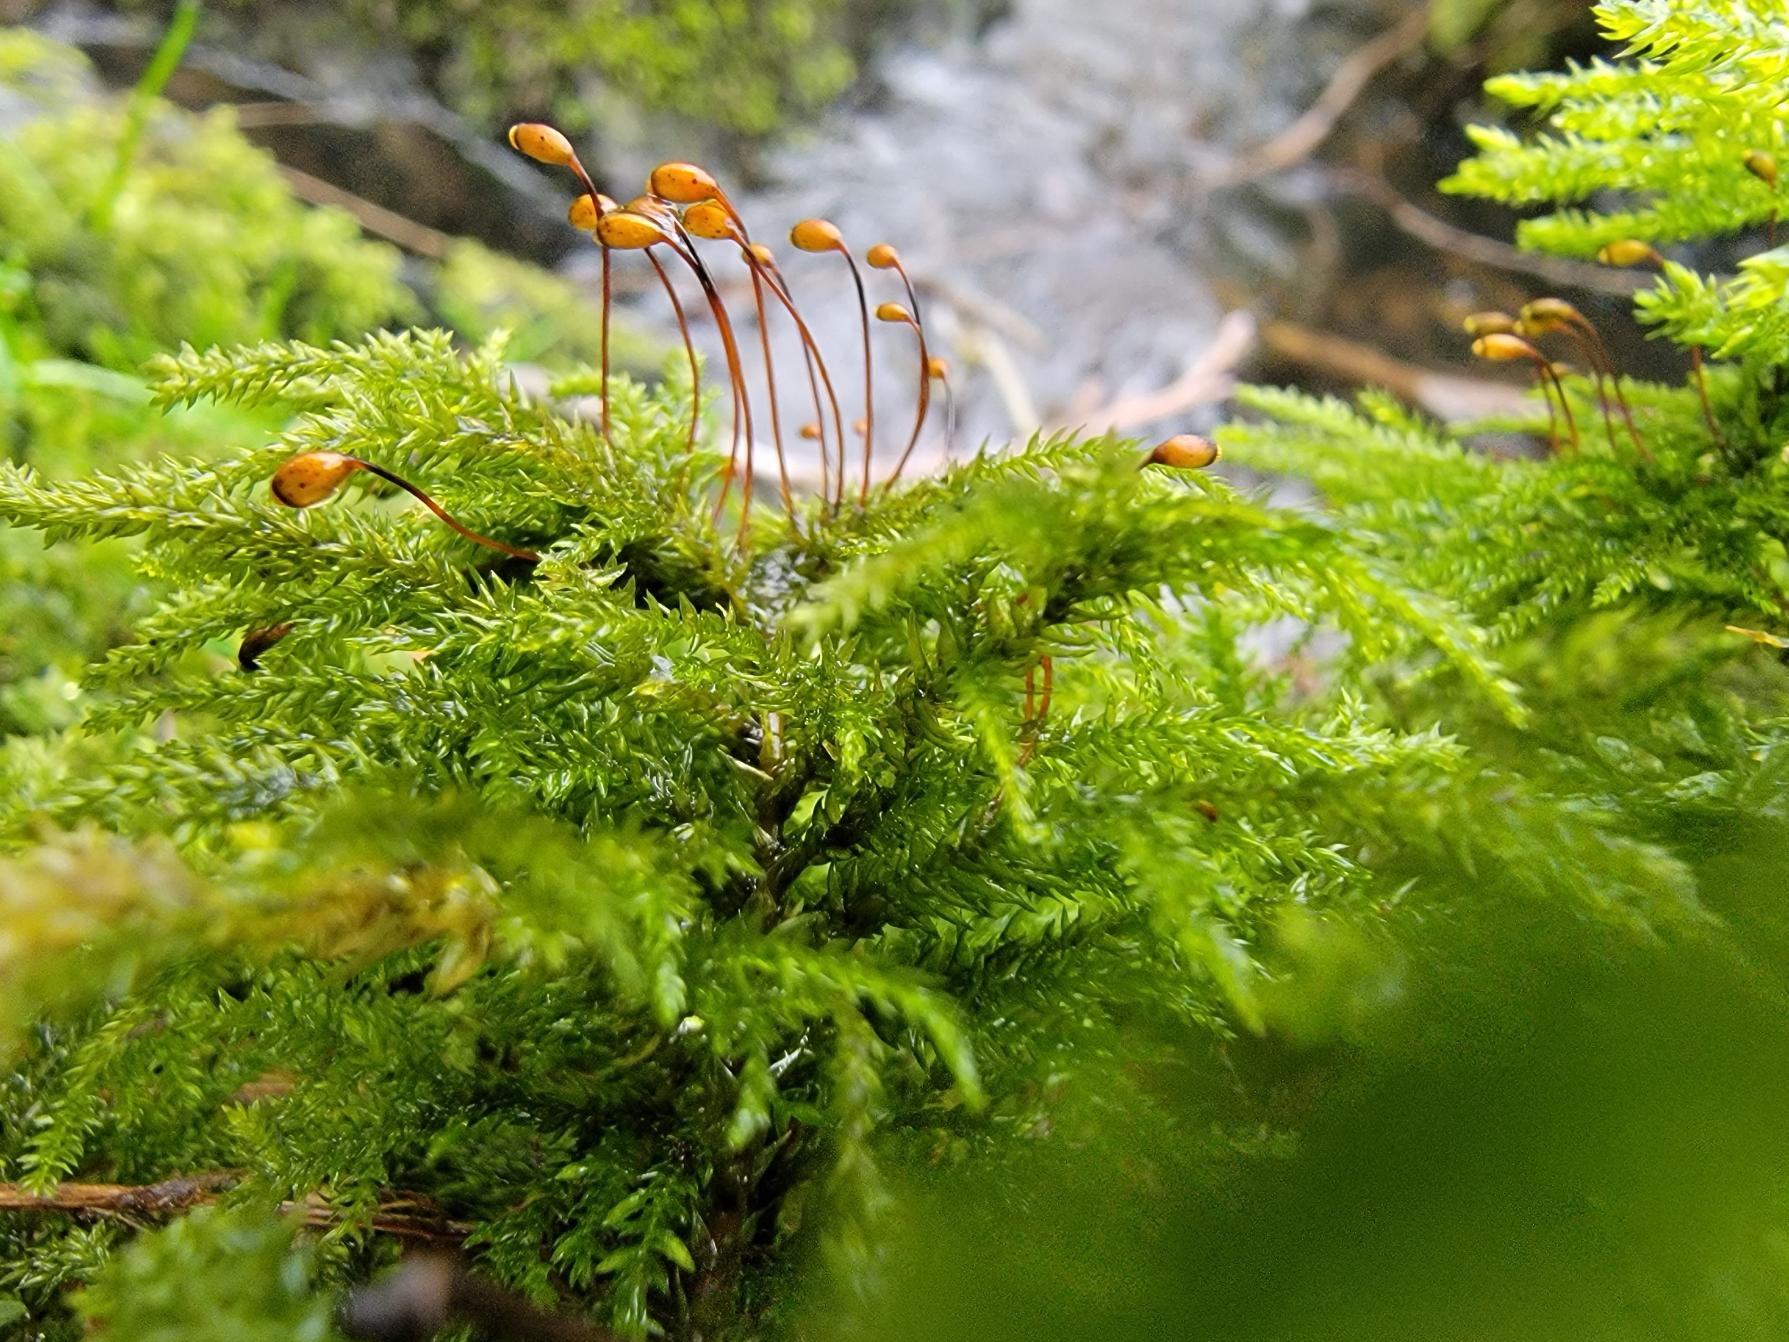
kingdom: Plantae
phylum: Bryophyta
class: Bryopsida
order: Hypnales
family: Neckeraceae
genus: Thamnobryum
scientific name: Thamnobryum alopecurum
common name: Mat bækkost
